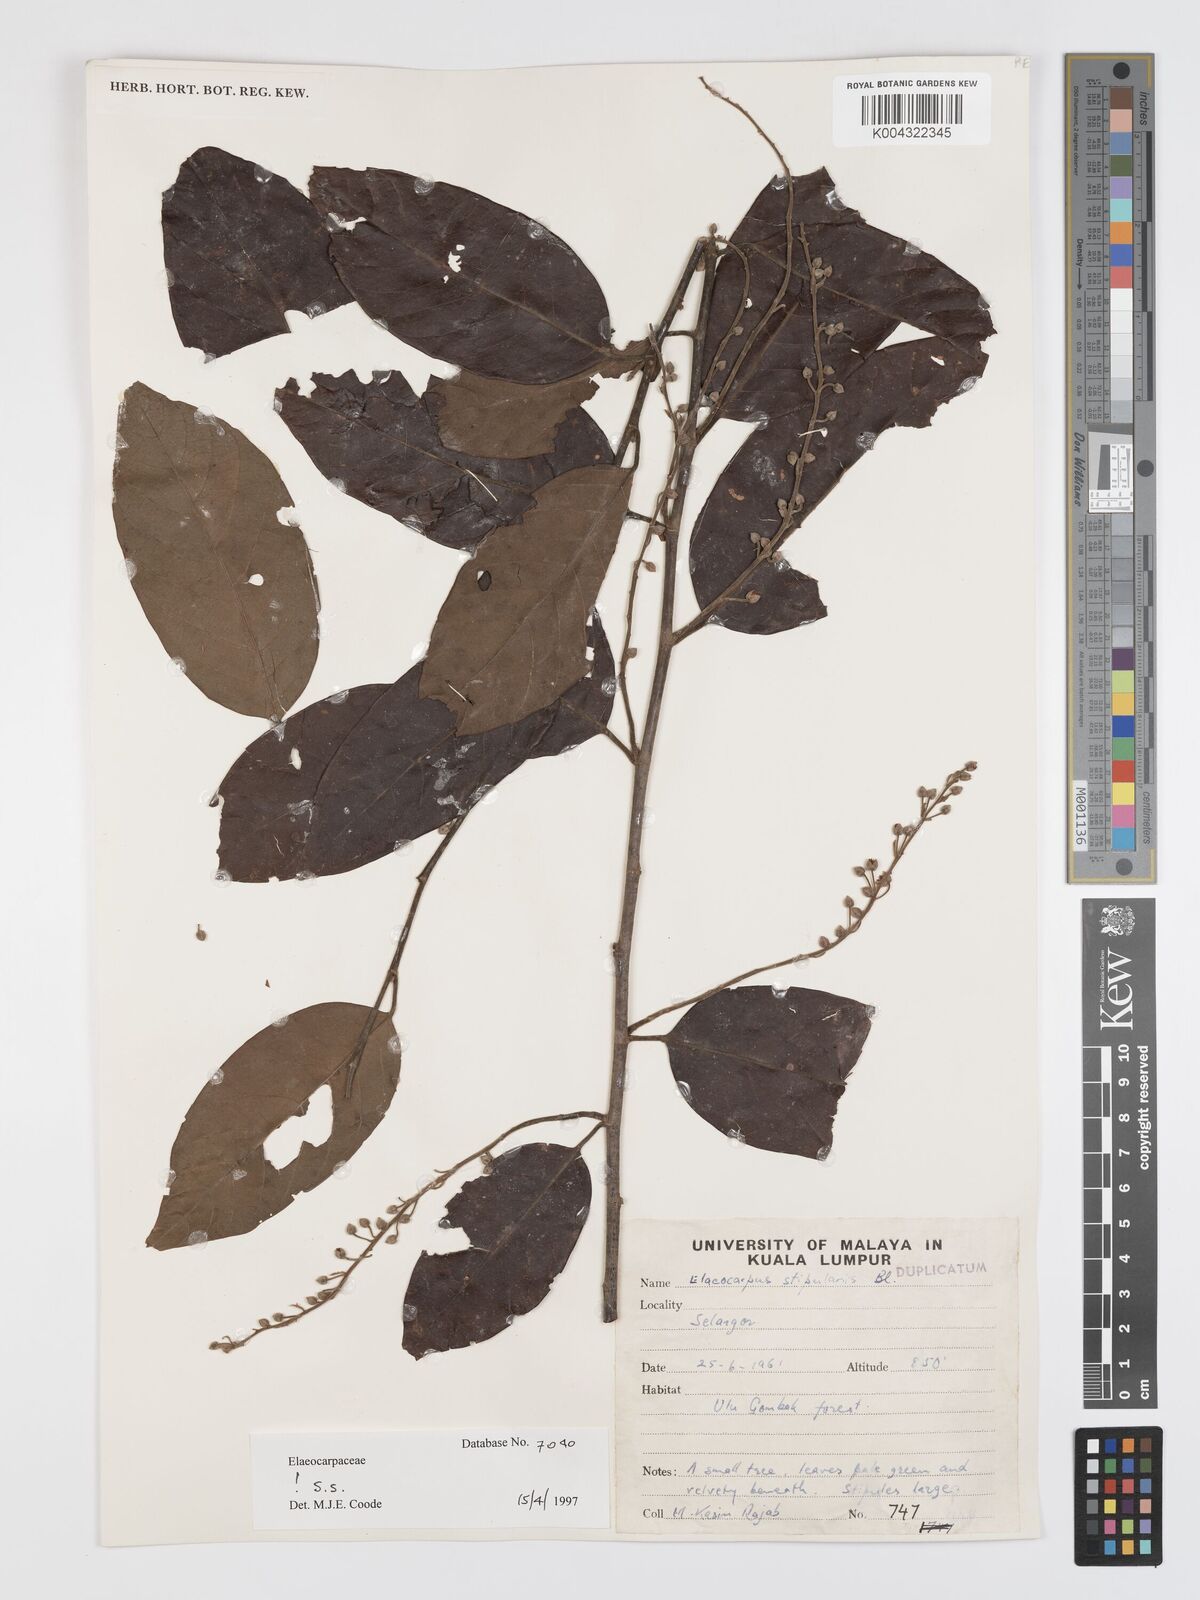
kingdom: Plantae
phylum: Tracheophyta
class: Magnoliopsida
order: Oxalidales
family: Elaeocarpaceae
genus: Elaeocarpus
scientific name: Elaeocarpus stipularis
